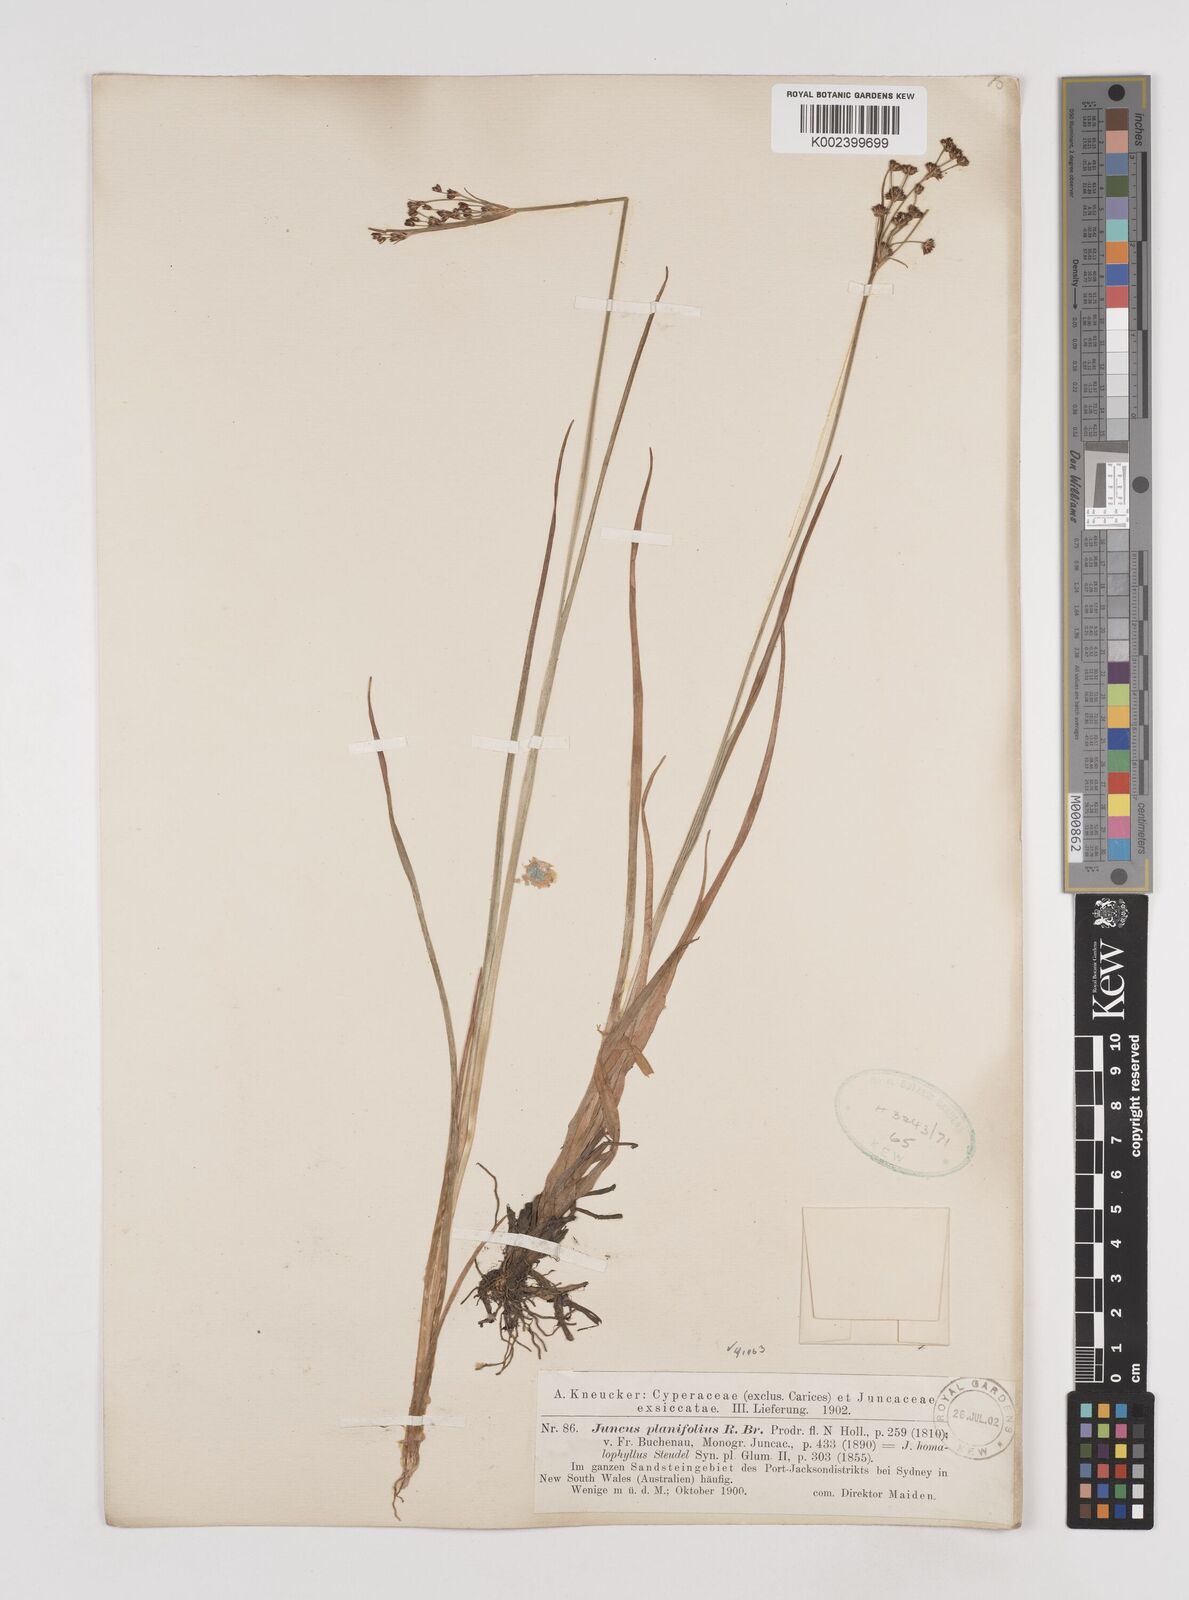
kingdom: Plantae
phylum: Tracheophyta
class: Liliopsida
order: Poales
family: Juncaceae
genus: Juncus
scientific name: Juncus planifolius
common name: Broadleaf rush
